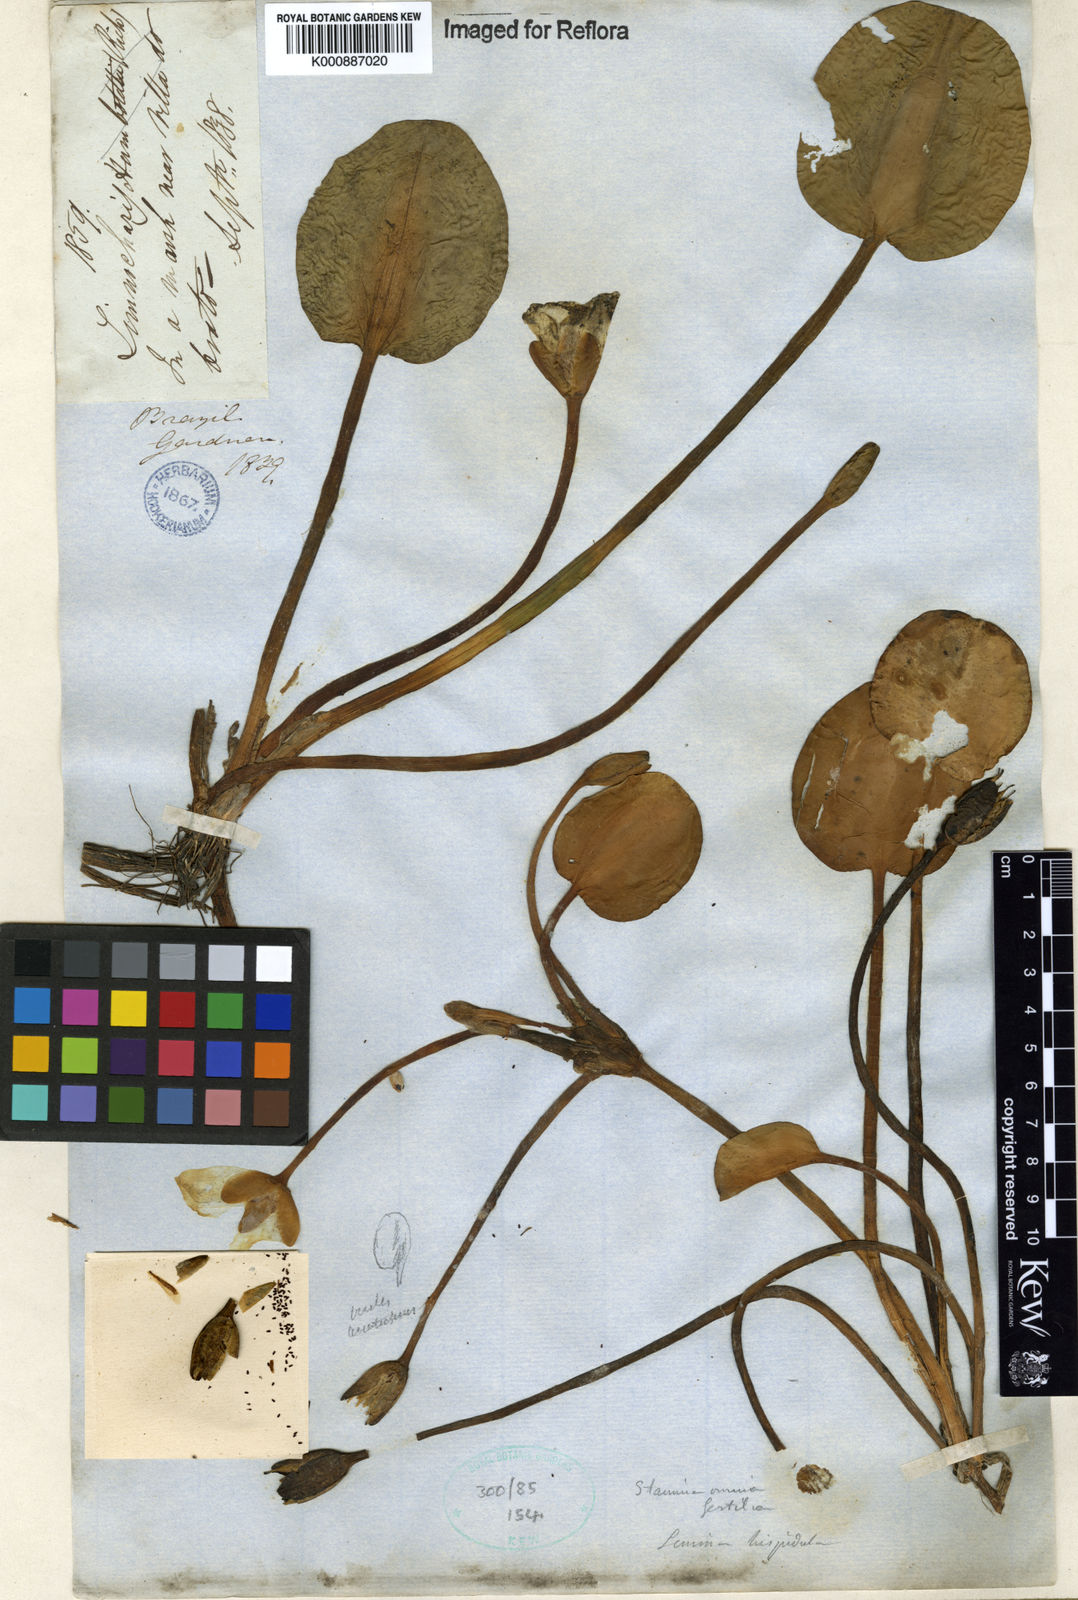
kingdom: Plantae
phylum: Tracheophyta
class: Liliopsida
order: Alismatales
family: Alismataceae
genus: Hydrocleys
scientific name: Hydrocleys nymphoides
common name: Water-poppy
